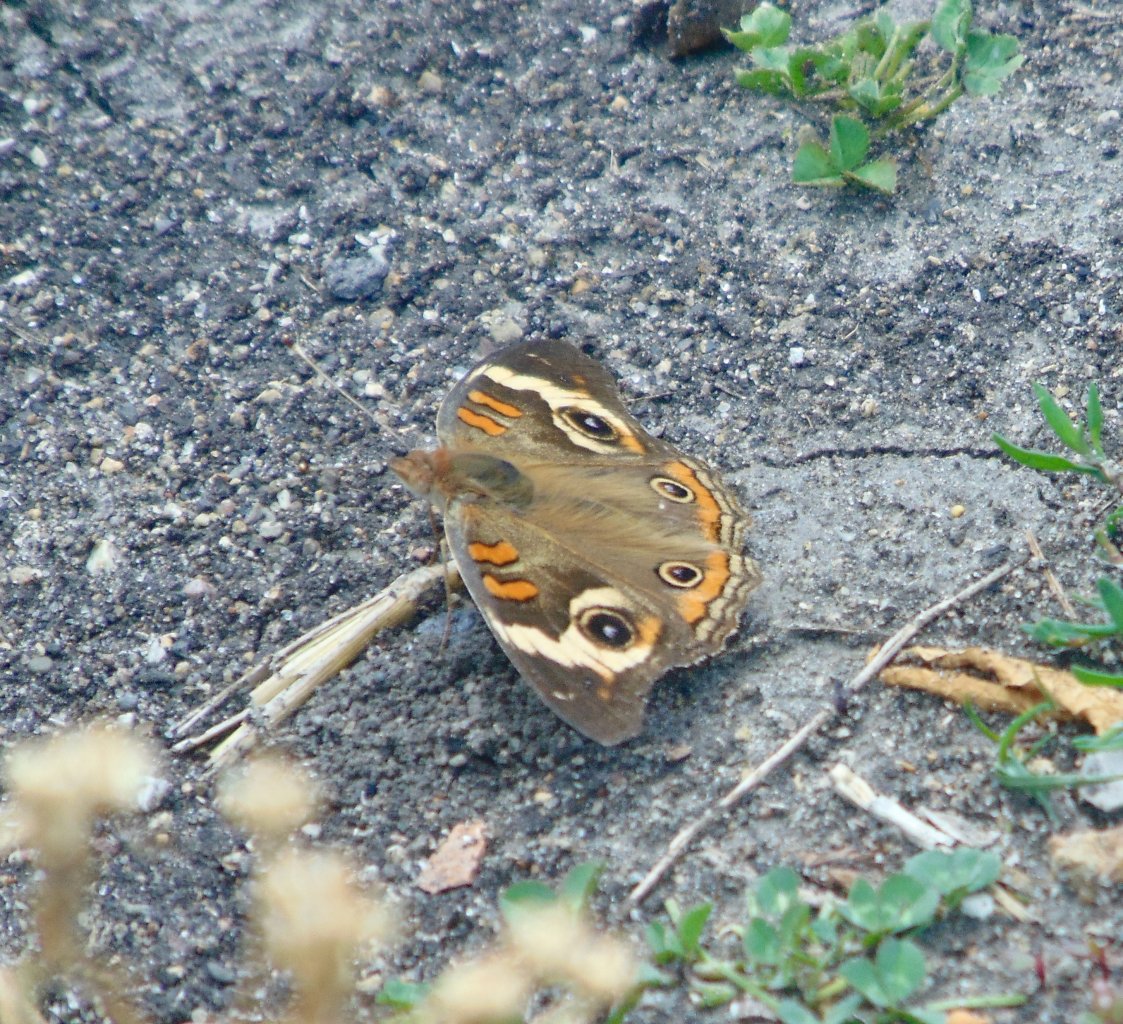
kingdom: Animalia
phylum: Arthropoda
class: Insecta
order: Lepidoptera
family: Nymphalidae
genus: Junonia
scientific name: Junonia coenia
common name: Common Buckeye
